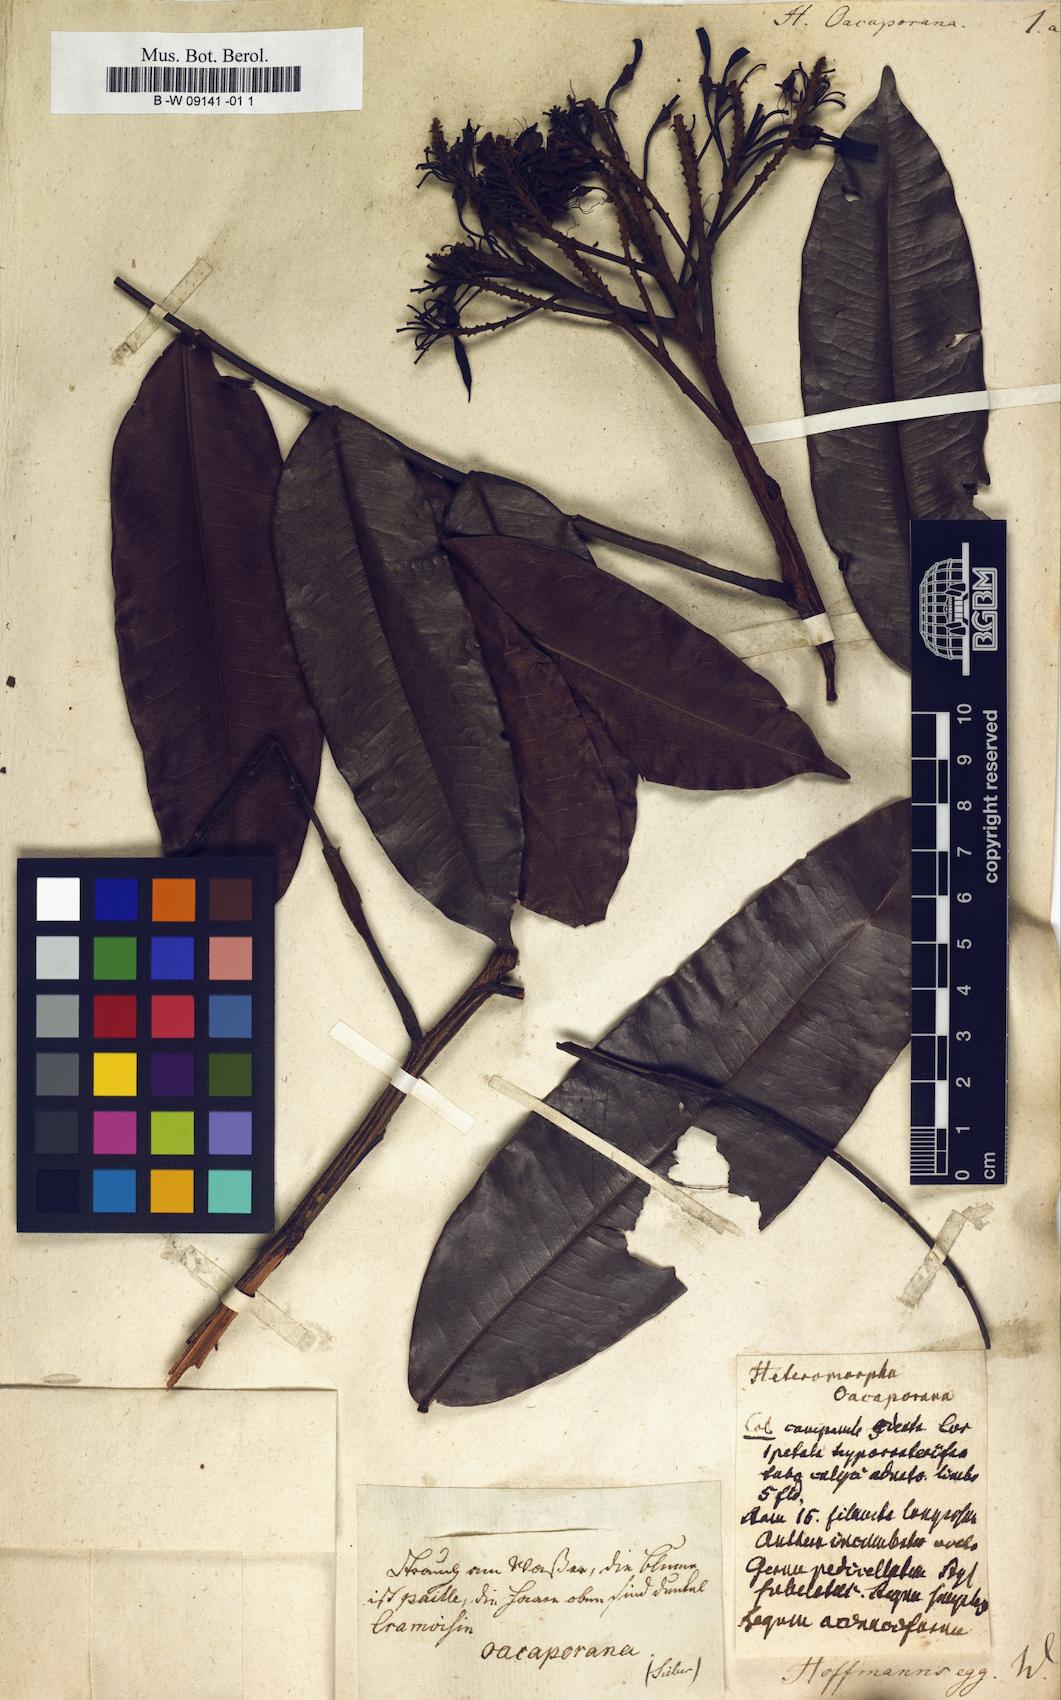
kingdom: Plantae
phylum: Tracheophyta
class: Magnoliopsida
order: Apiales
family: Apiaceae
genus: Heteromorpha
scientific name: Heteromorpha
